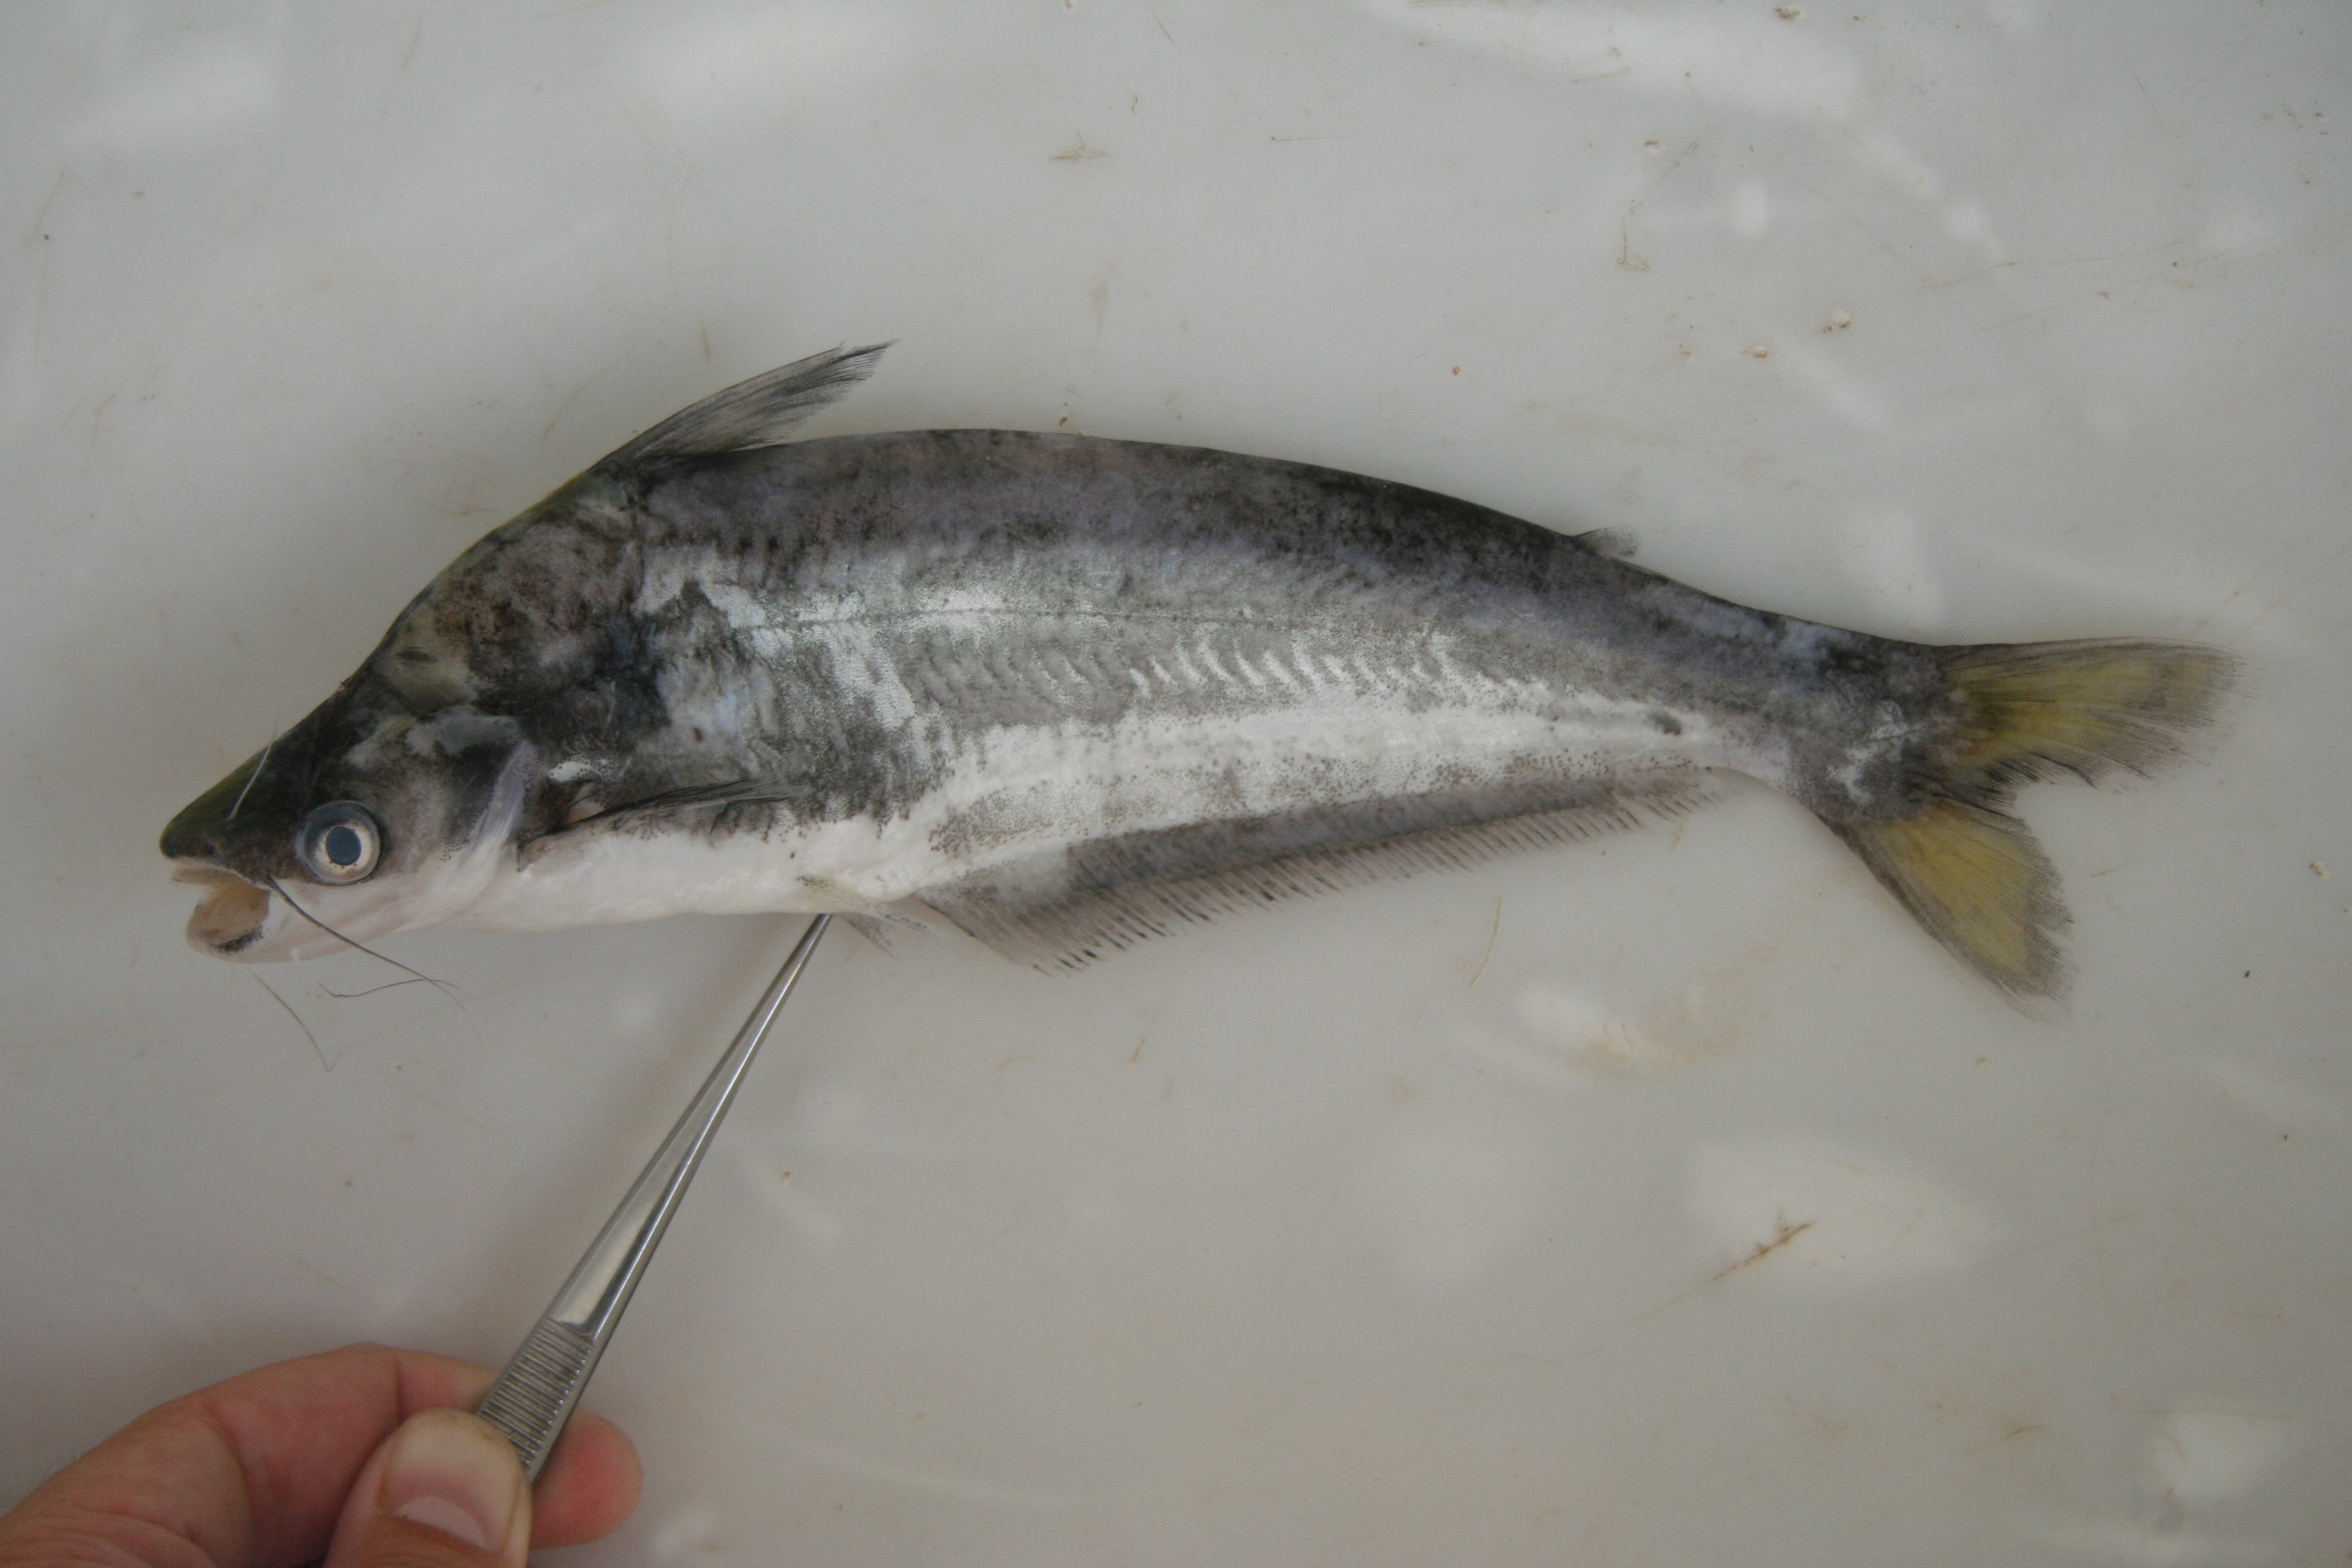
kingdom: Animalia
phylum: Chordata
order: Siluriformes
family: Schilbeidae
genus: Schilbe
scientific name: Schilbe bocagii
